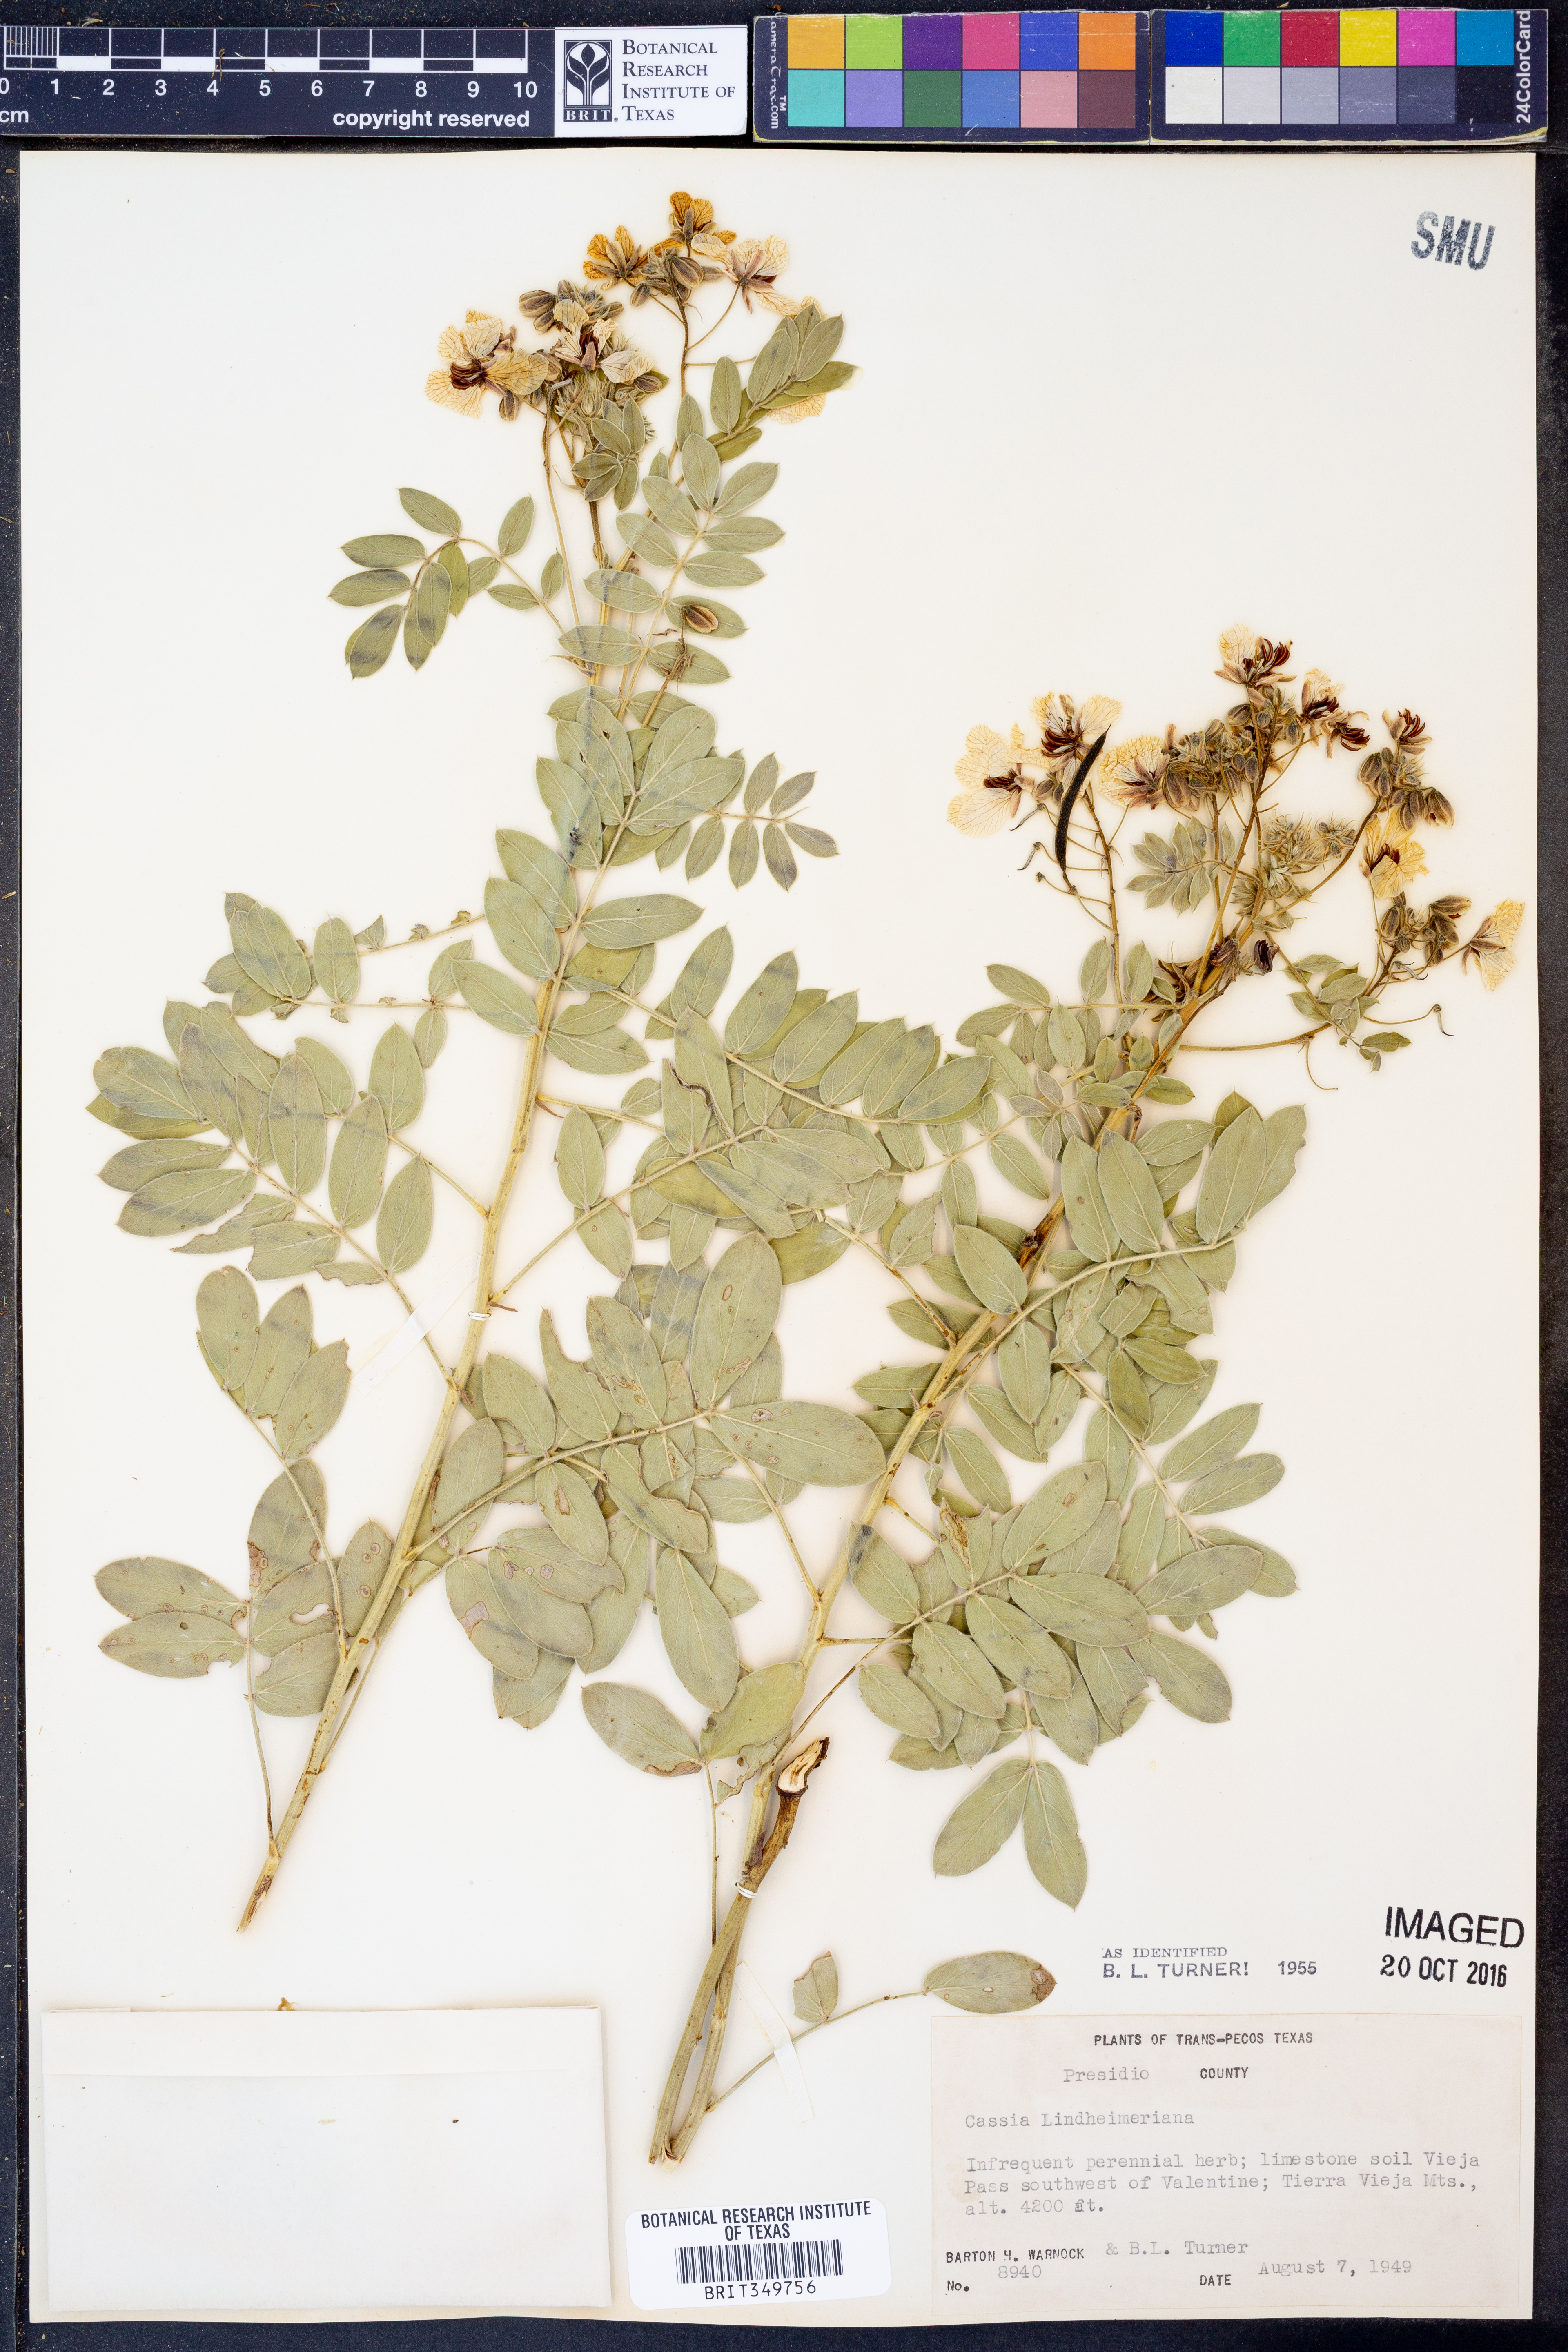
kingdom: Plantae
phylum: Tracheophyta
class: Magnoliopsida
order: Fabales
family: Fabaceae
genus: Senna
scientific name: Senna lindheimeriana
